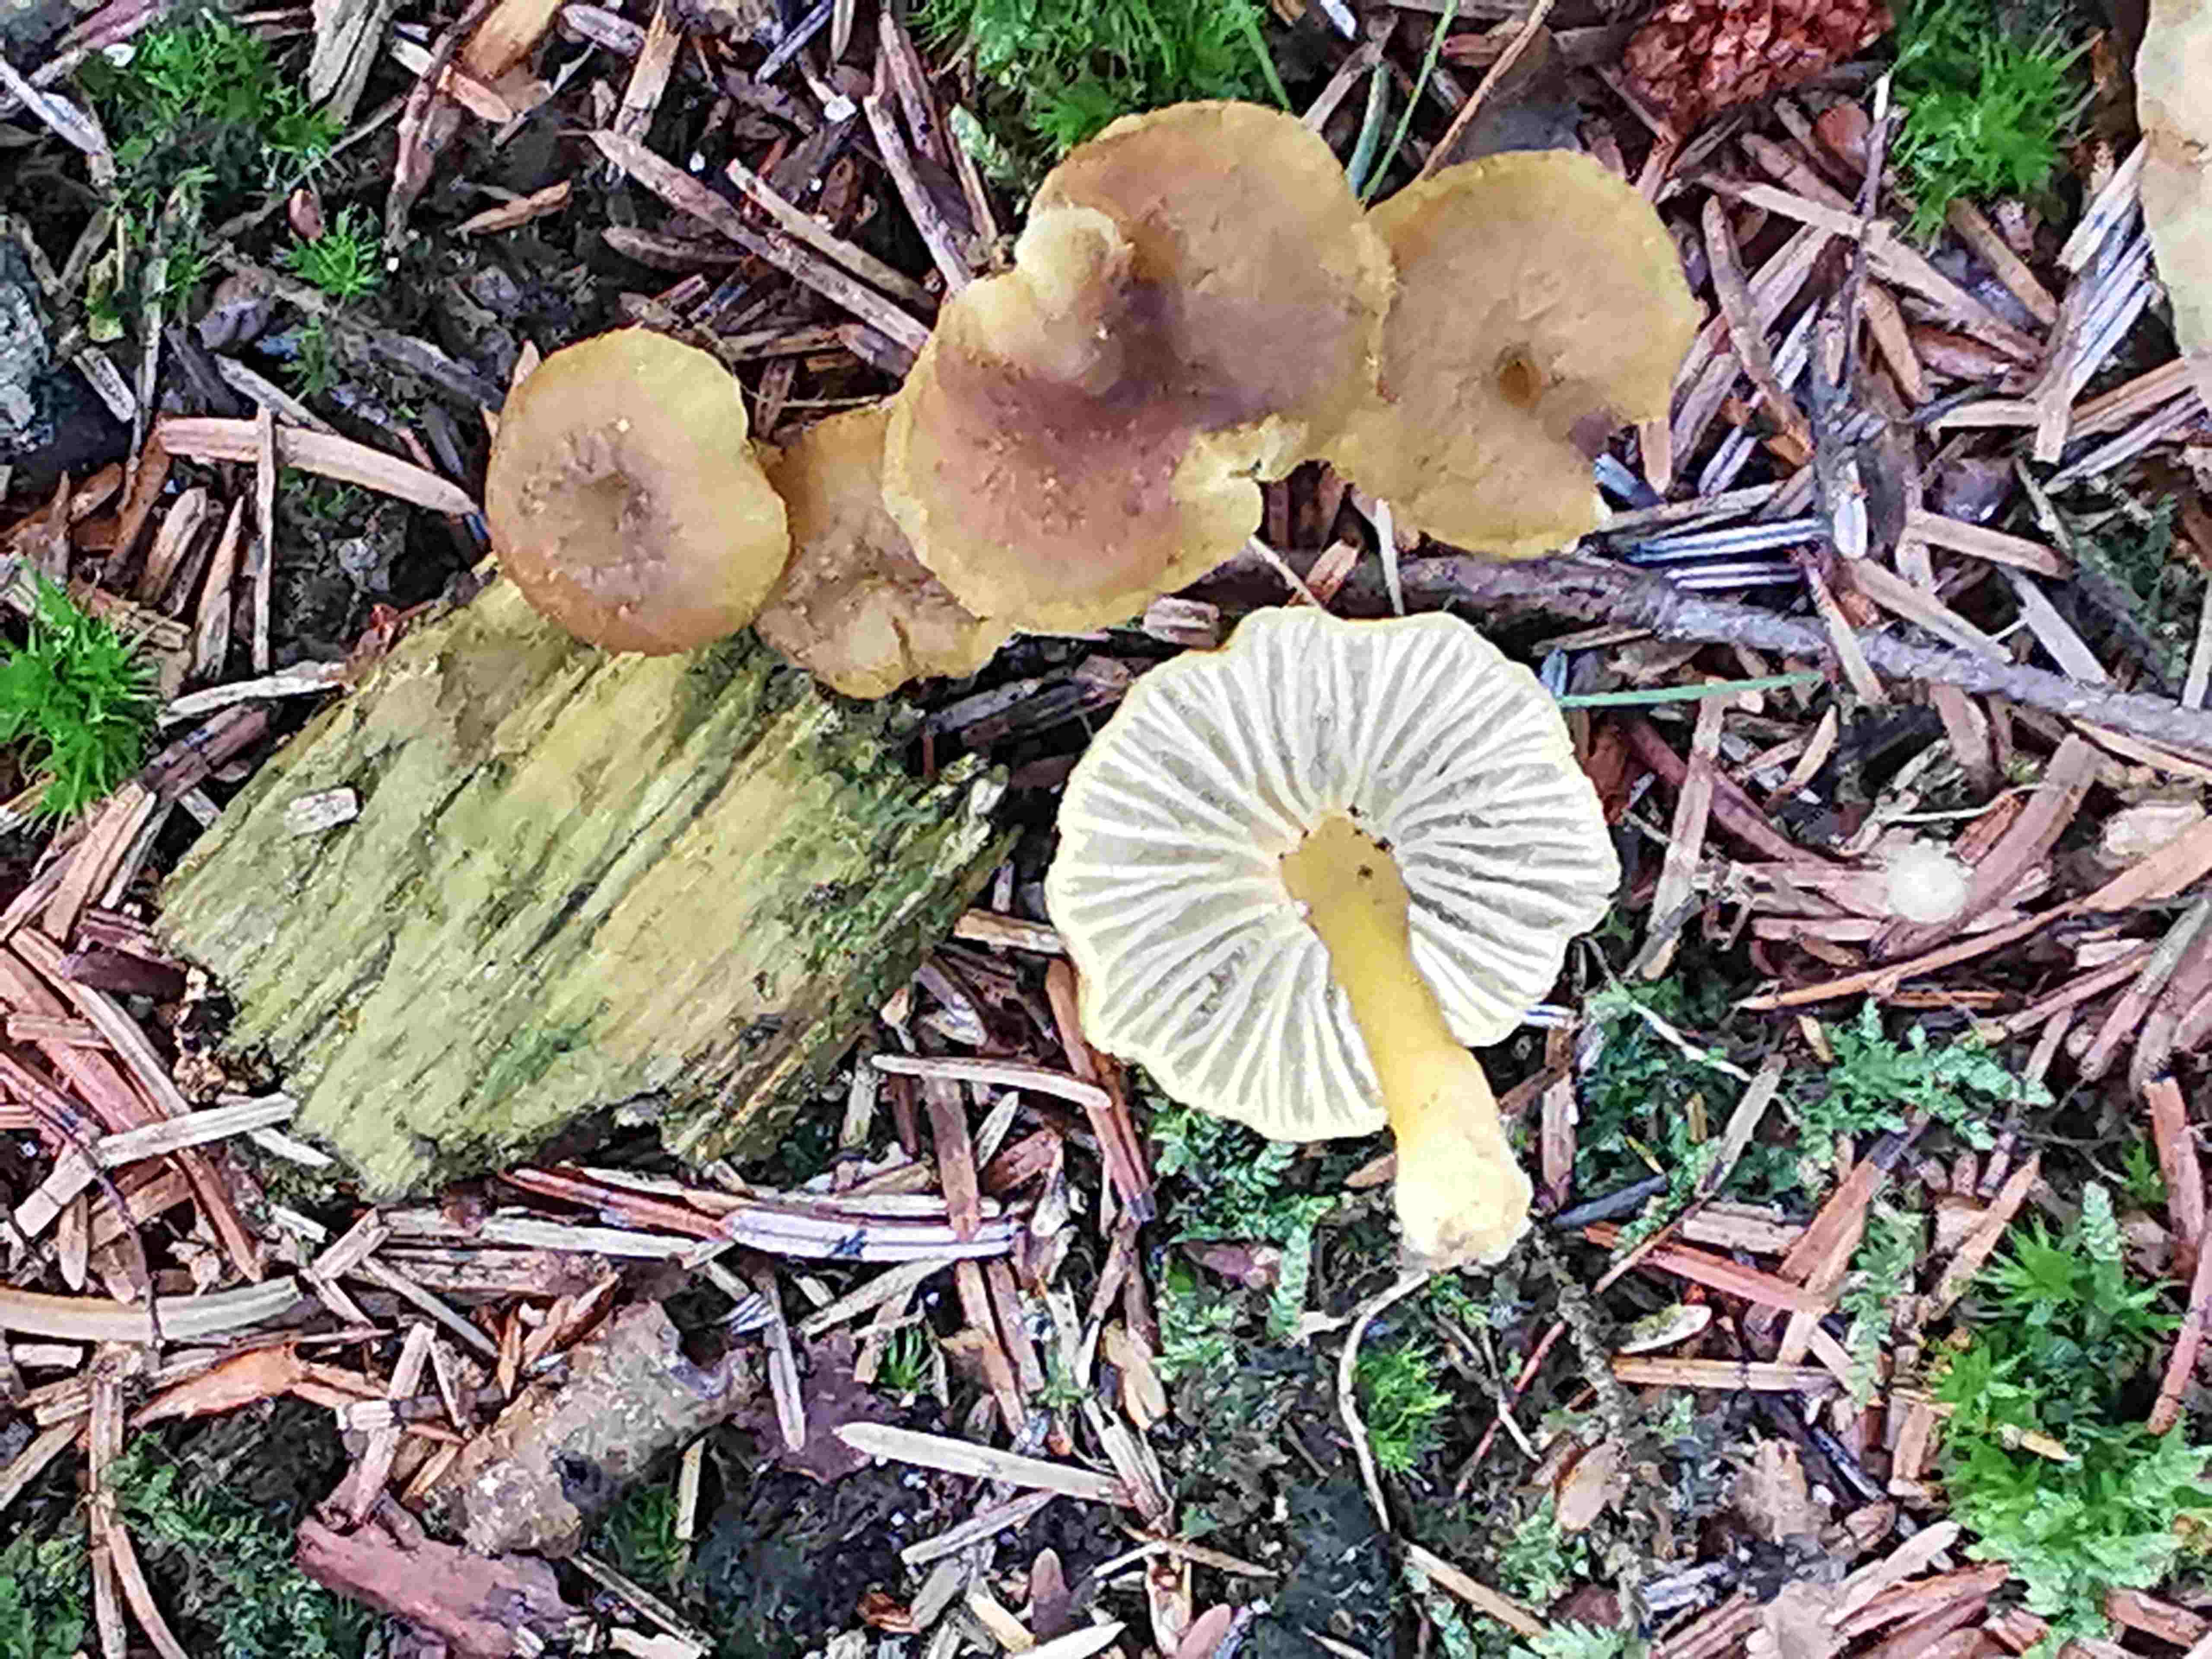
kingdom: Fungi
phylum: Basidiomycota
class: Agaricomycetes
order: Cantharellales
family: Hydnaceae
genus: Craterellus
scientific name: Craterellus tubaeformis
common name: tragt-kantarel
